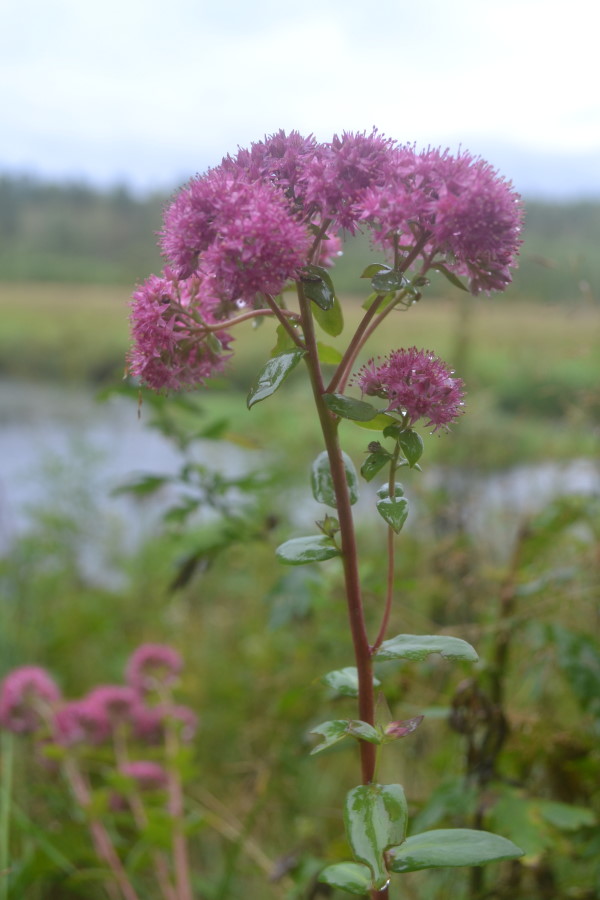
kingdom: Plantae
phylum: Tracheophyta
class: Magnoliopsida
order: Saxifragales
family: Crassulaceae
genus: Hylotelephium
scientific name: Hylotelephium telephium
